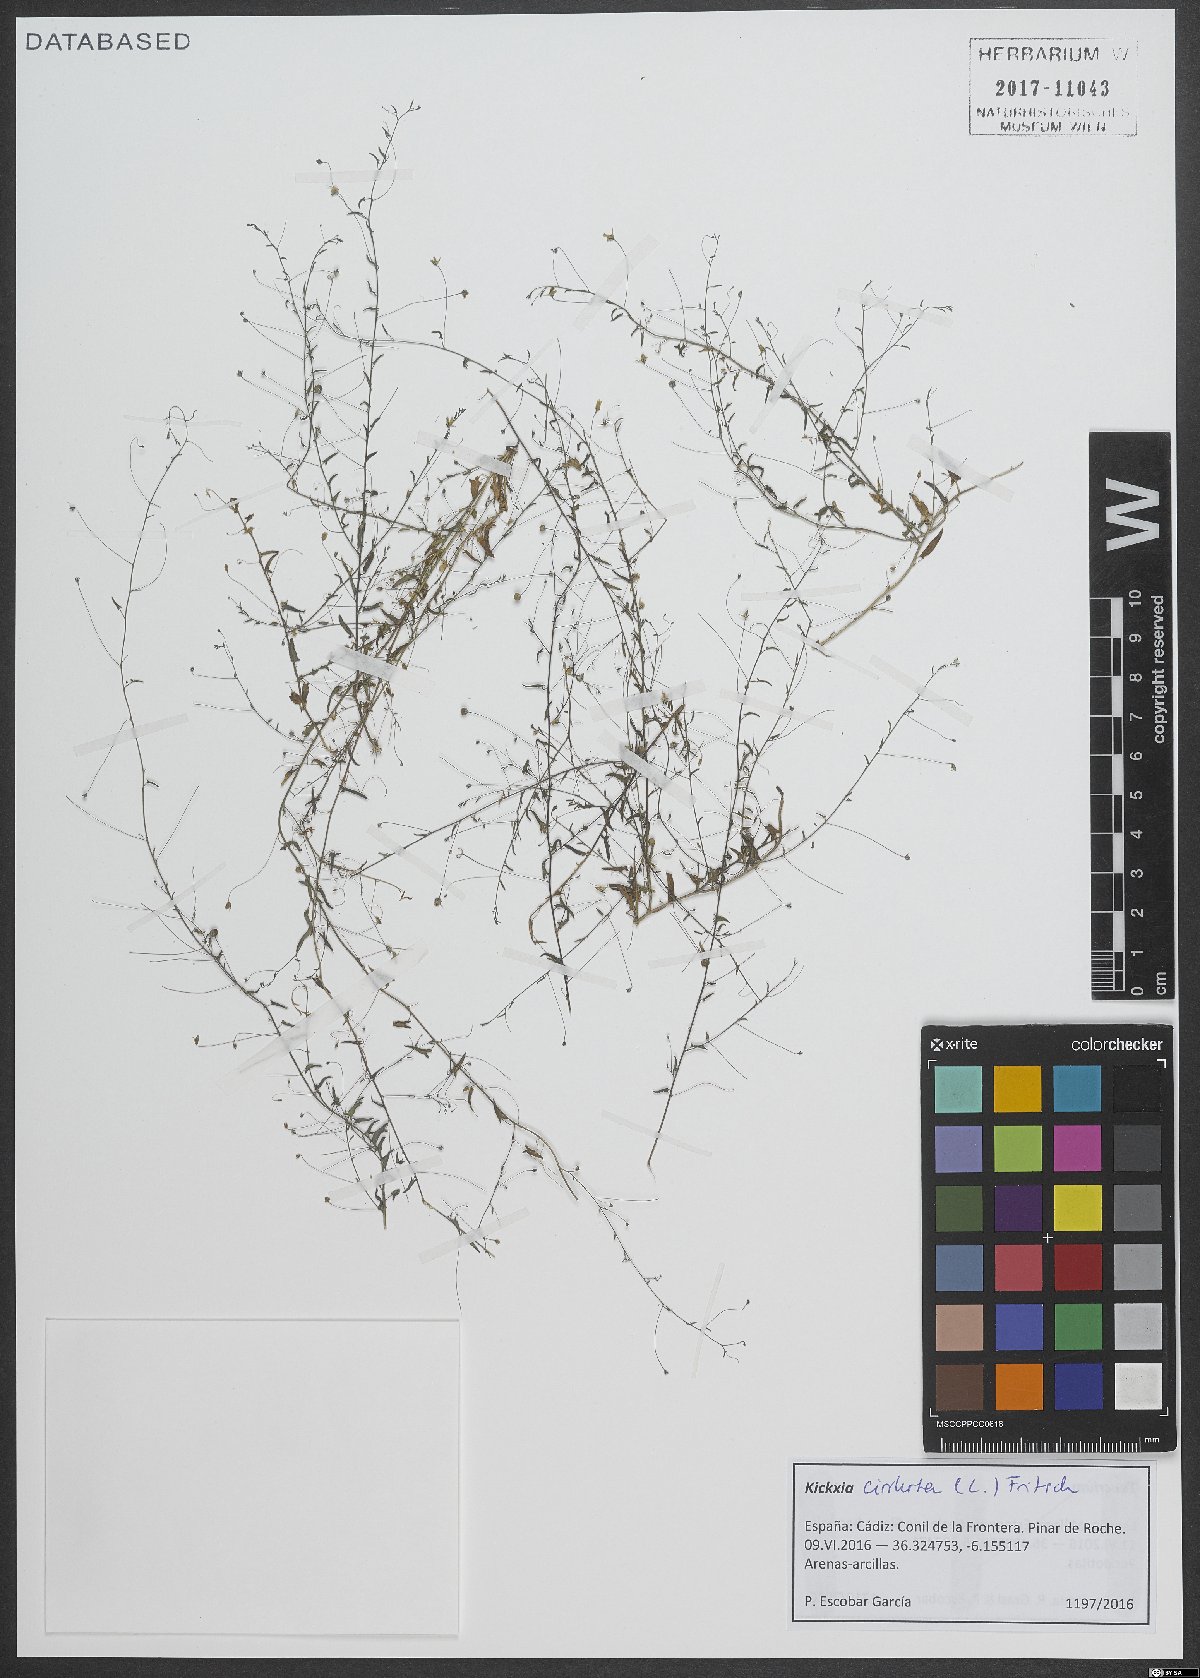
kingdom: Plantae
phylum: Tracheophyta
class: Magnoliopsida
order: Lamiales
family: Plantaginaceae
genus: Kickxia
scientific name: Kickxia cirrhosa
